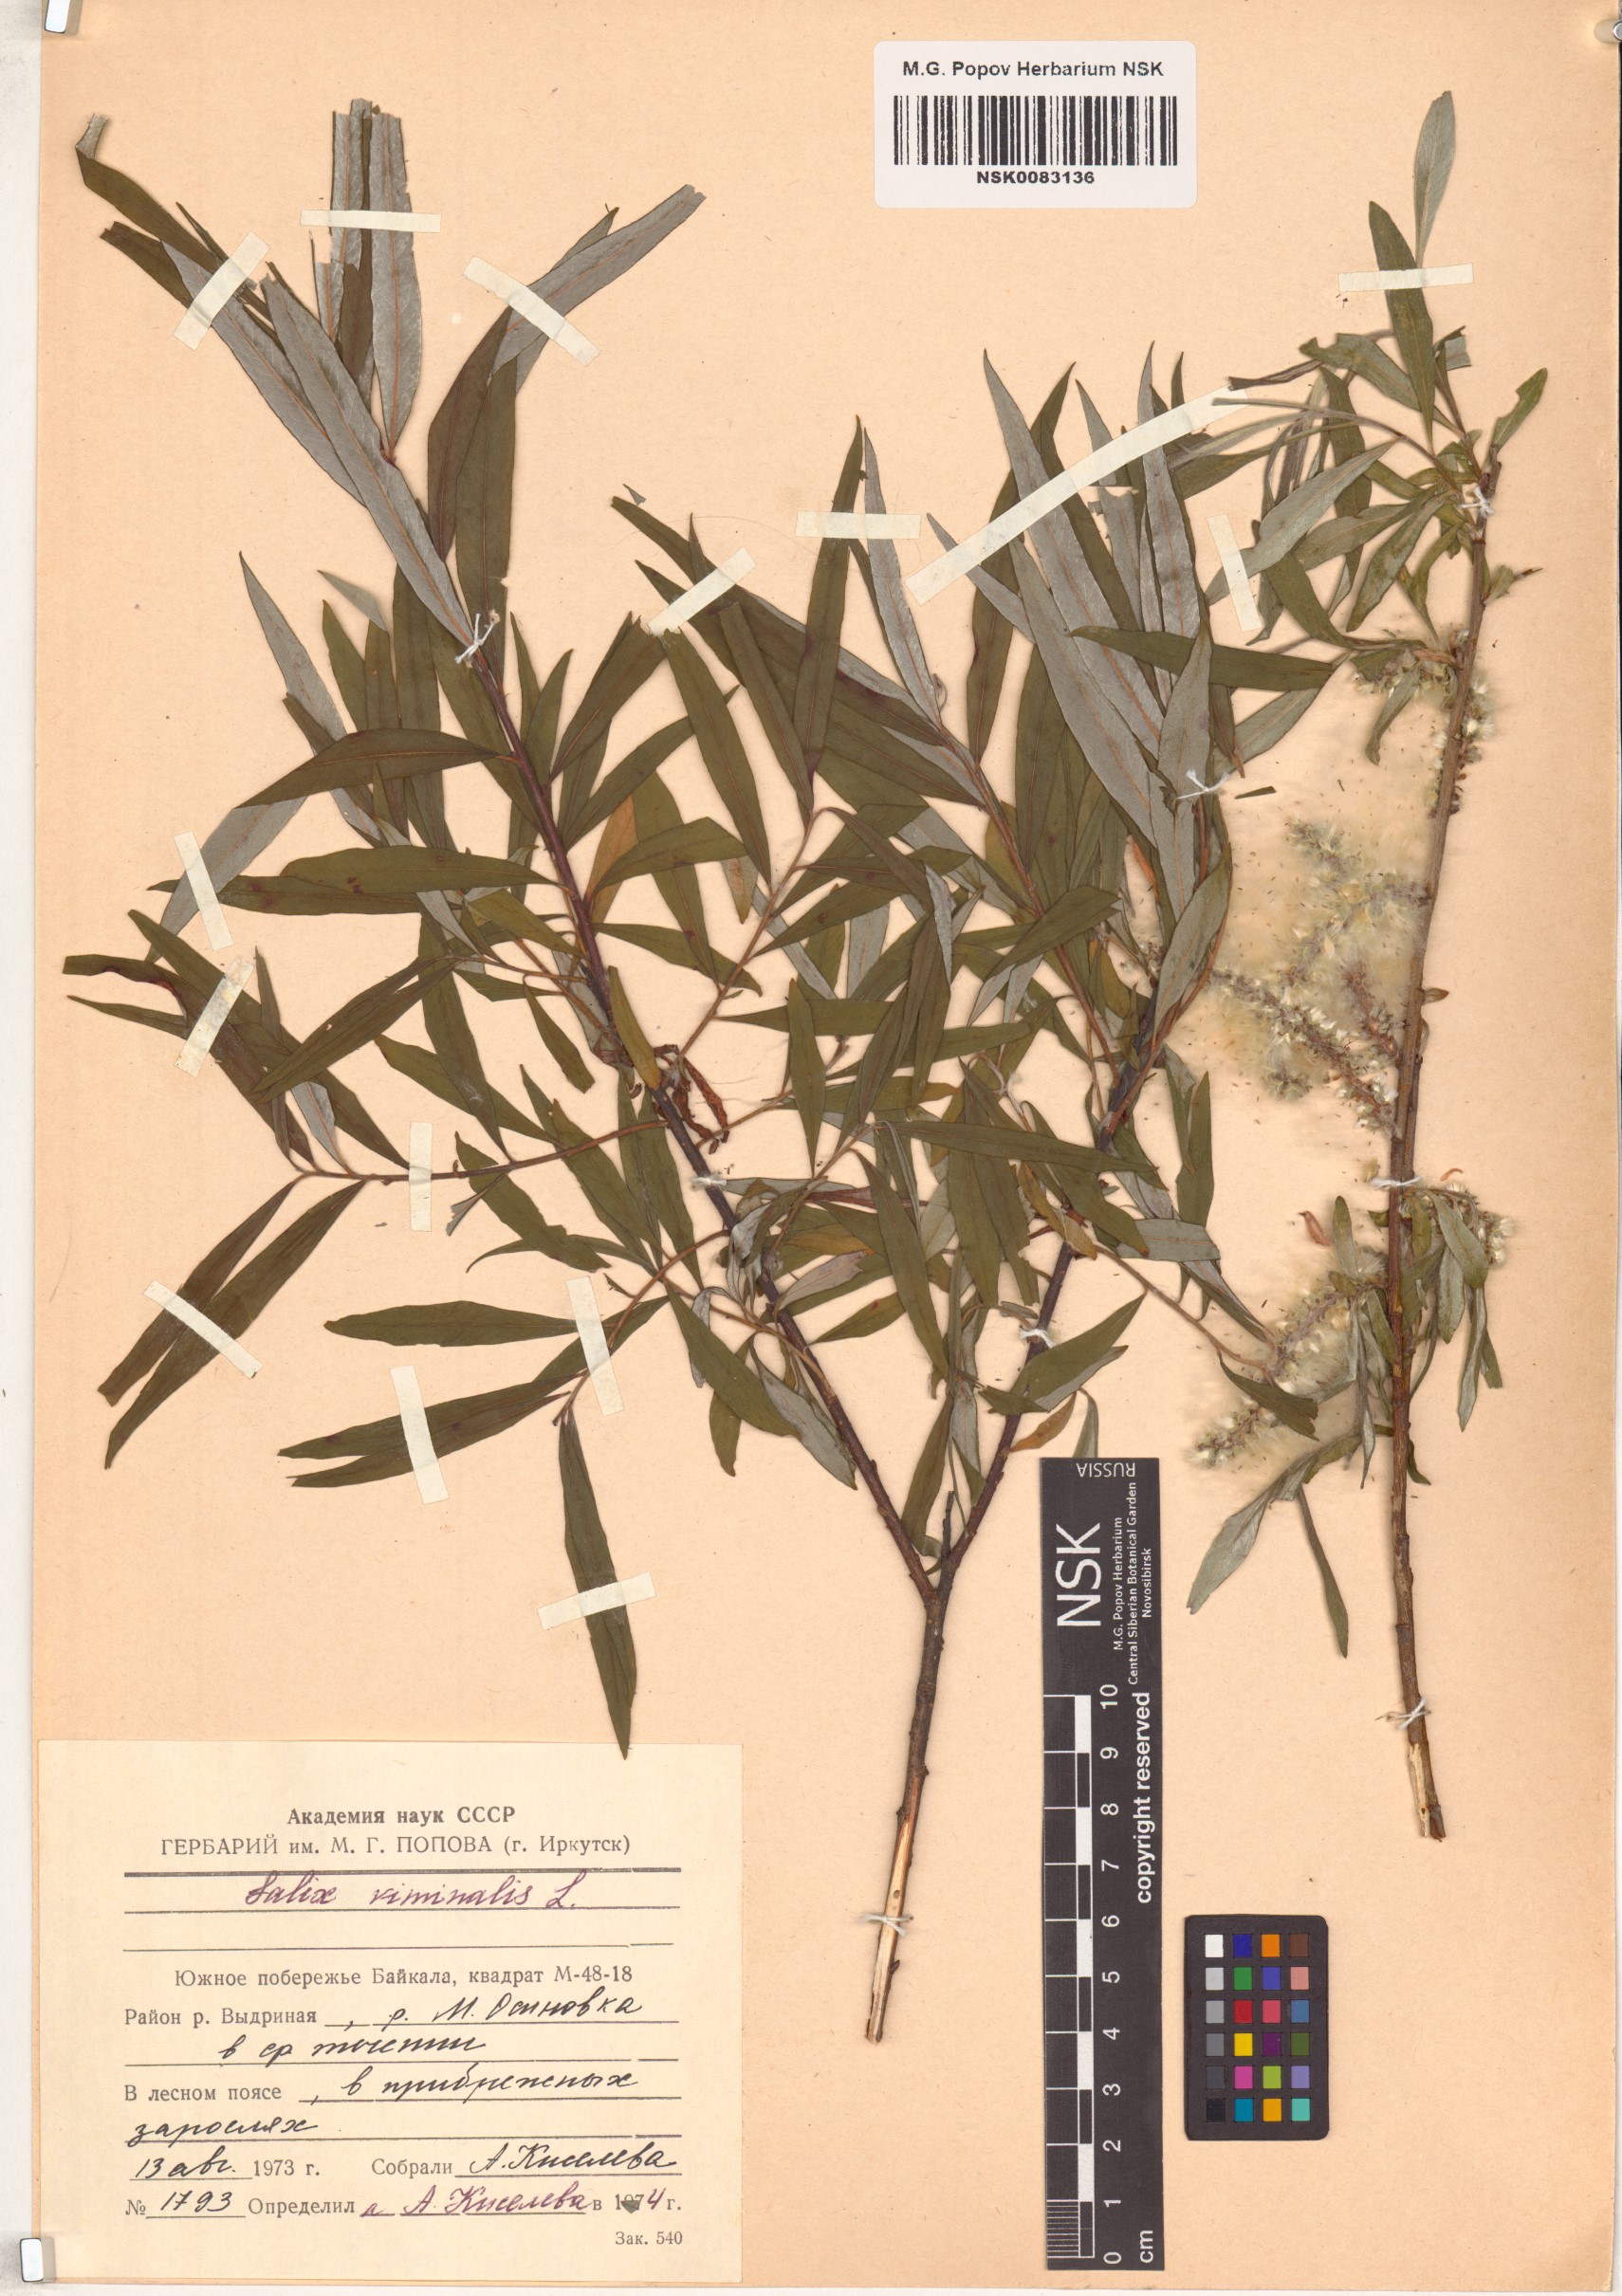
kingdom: Plantae
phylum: Tracheophyta
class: Magnoliopsida
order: Malpighiales
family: Salicaceae
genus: Salix
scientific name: Salix viminalis
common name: Osier
